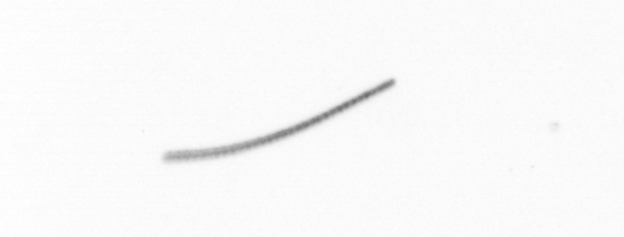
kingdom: Chromista
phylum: Ochrophyta
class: Bacillariophyceae
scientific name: Bacillariophyceae
